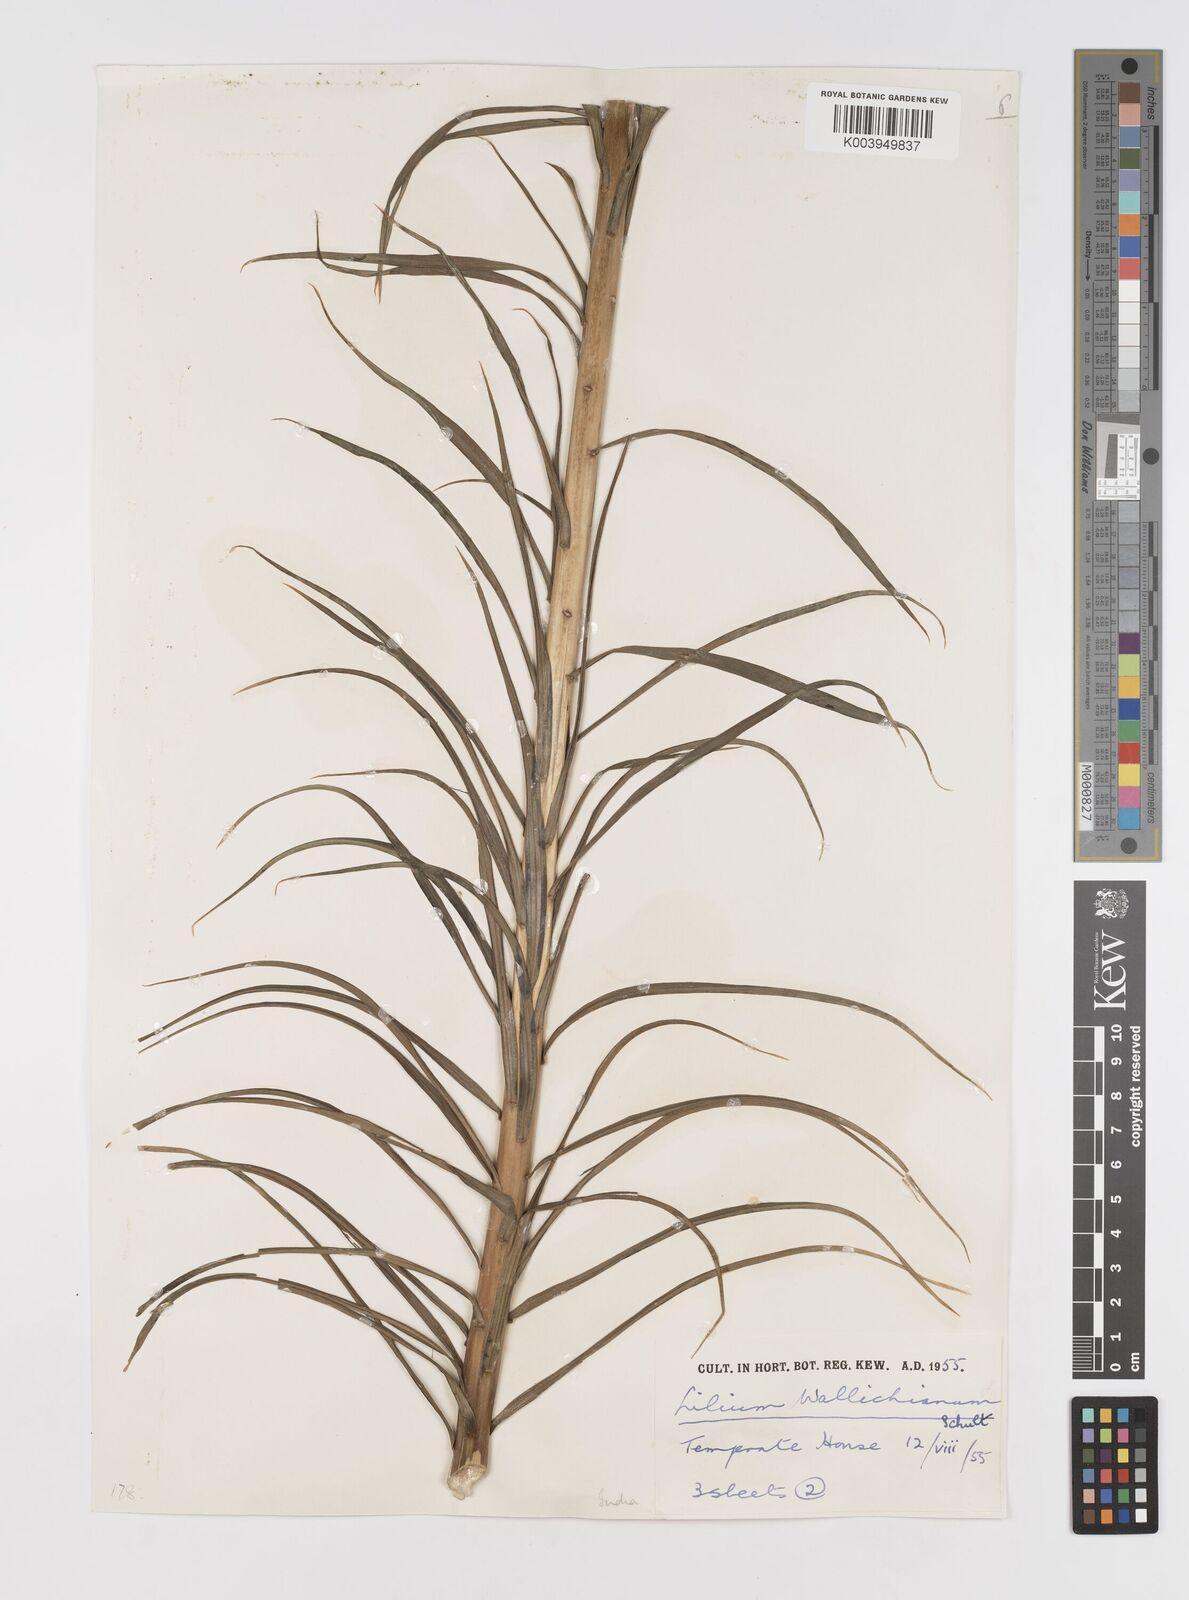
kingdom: Plantae
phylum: Tracheophyta
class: Liliopsida
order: Liliales
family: Liliaceae
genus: Lilium
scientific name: Lilium wallichianum
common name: Wallich's lily
